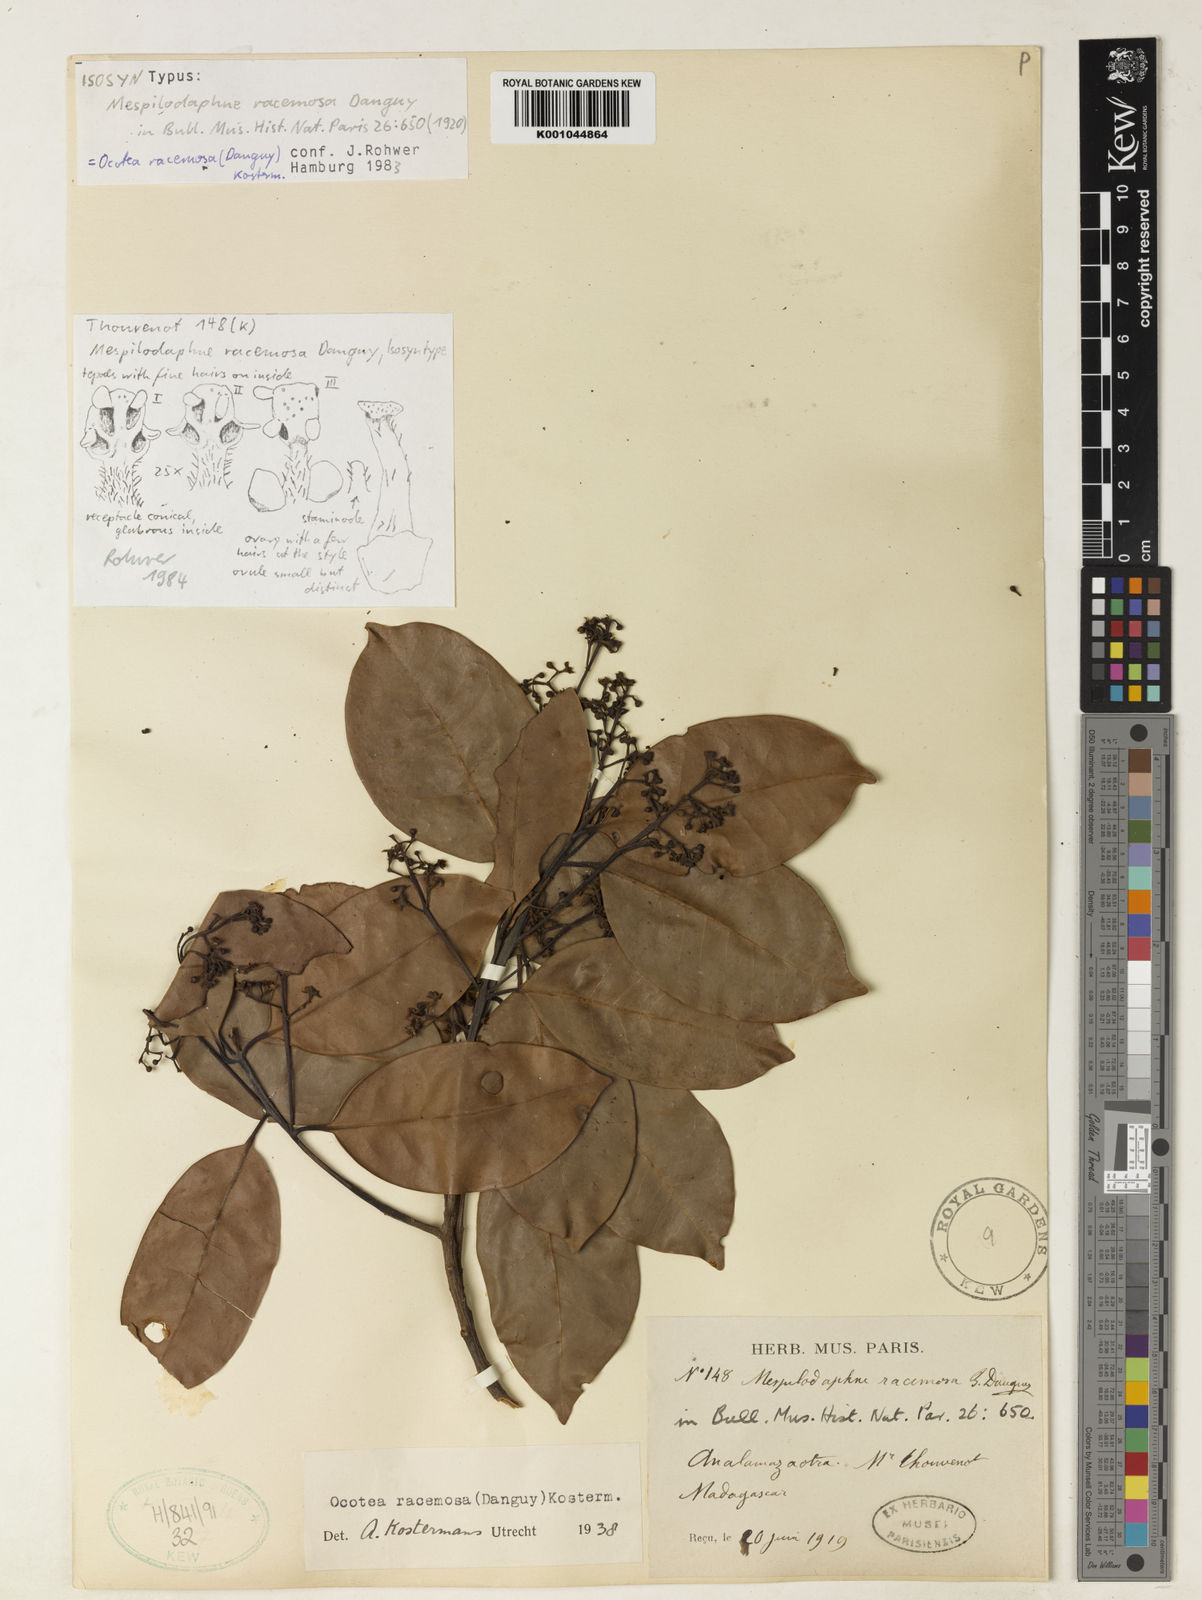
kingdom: Plantae
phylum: Tracheophyta
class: Magnoliopsida
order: Laurales
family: Lauraceae
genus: Mespilodaphne
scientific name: Mespilodaphne racemosa
